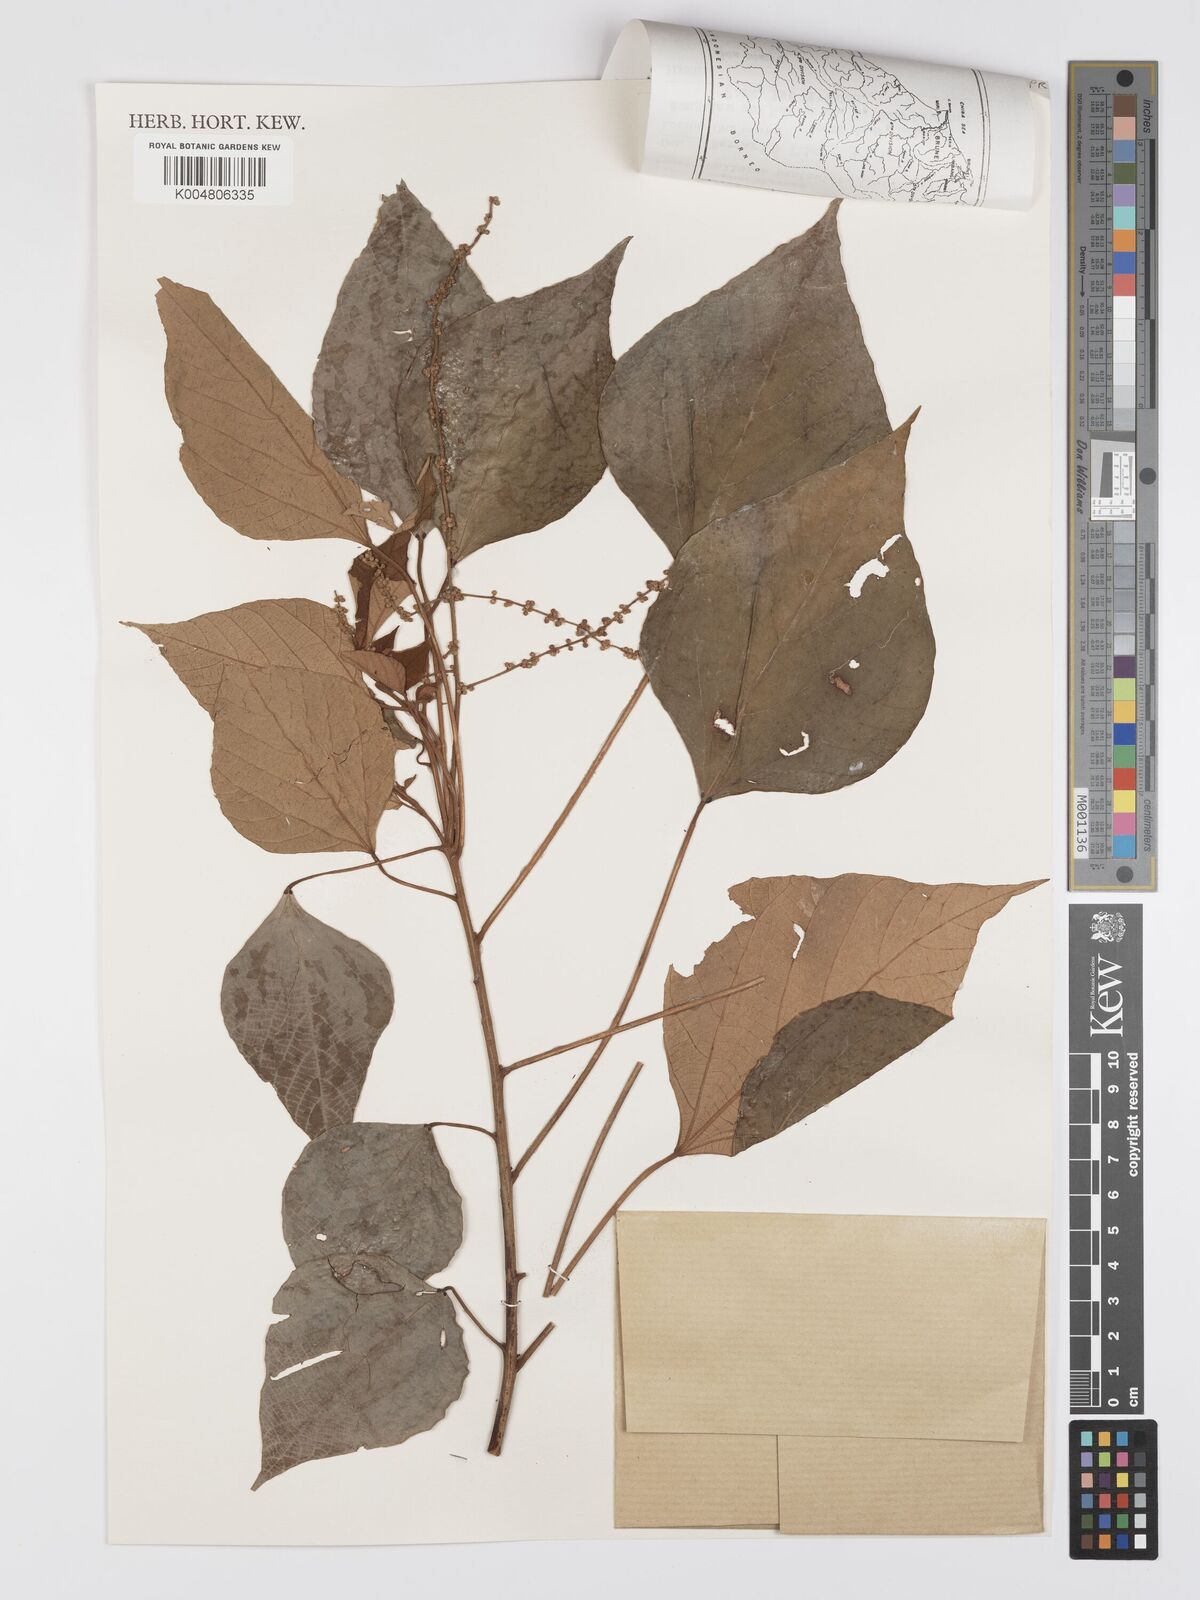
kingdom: Plantae
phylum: Tracheophyta
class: Magnoliopsida
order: Malpighiales
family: Euphorbiaceae
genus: Mallotus
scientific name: Mallotus paniculatus
